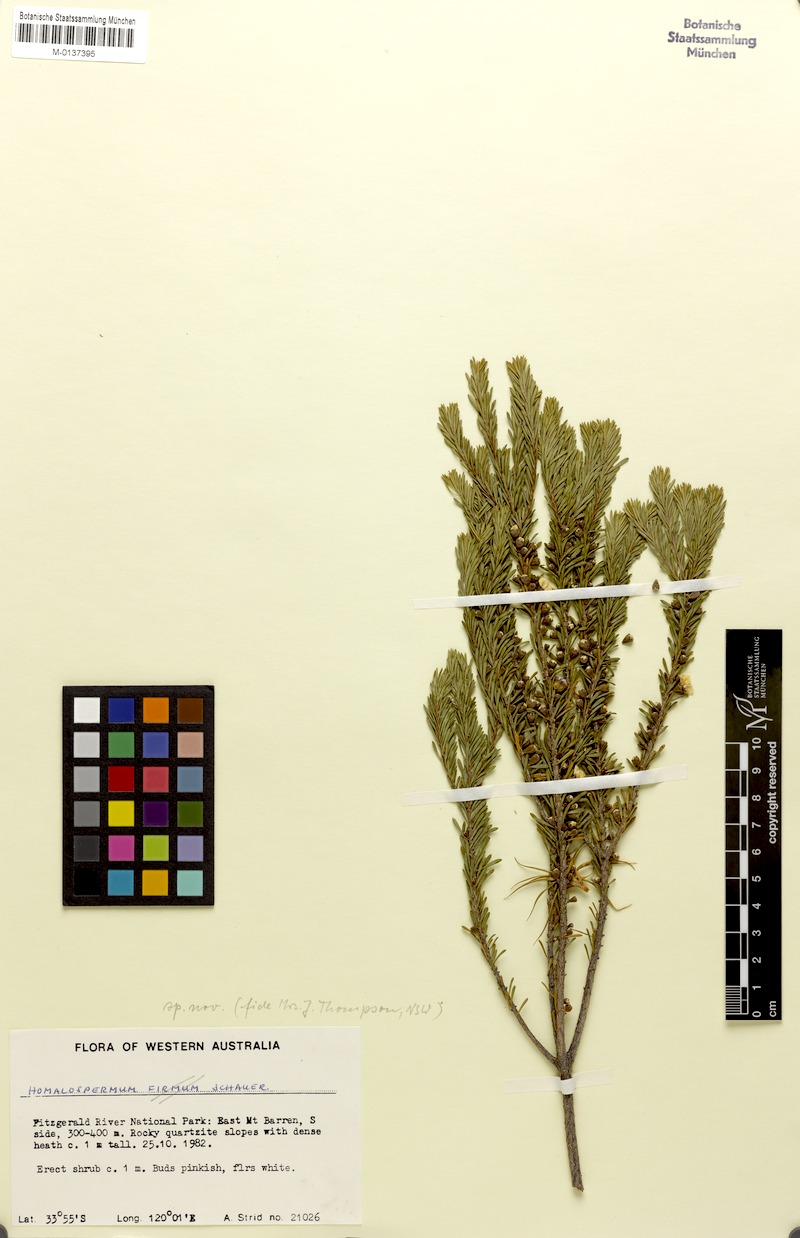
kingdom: Plantae
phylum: Tracheophyta
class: Magnoliopsida
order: Myrtales
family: Myrtaceae
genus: Leptospermum
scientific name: Leptospermum
